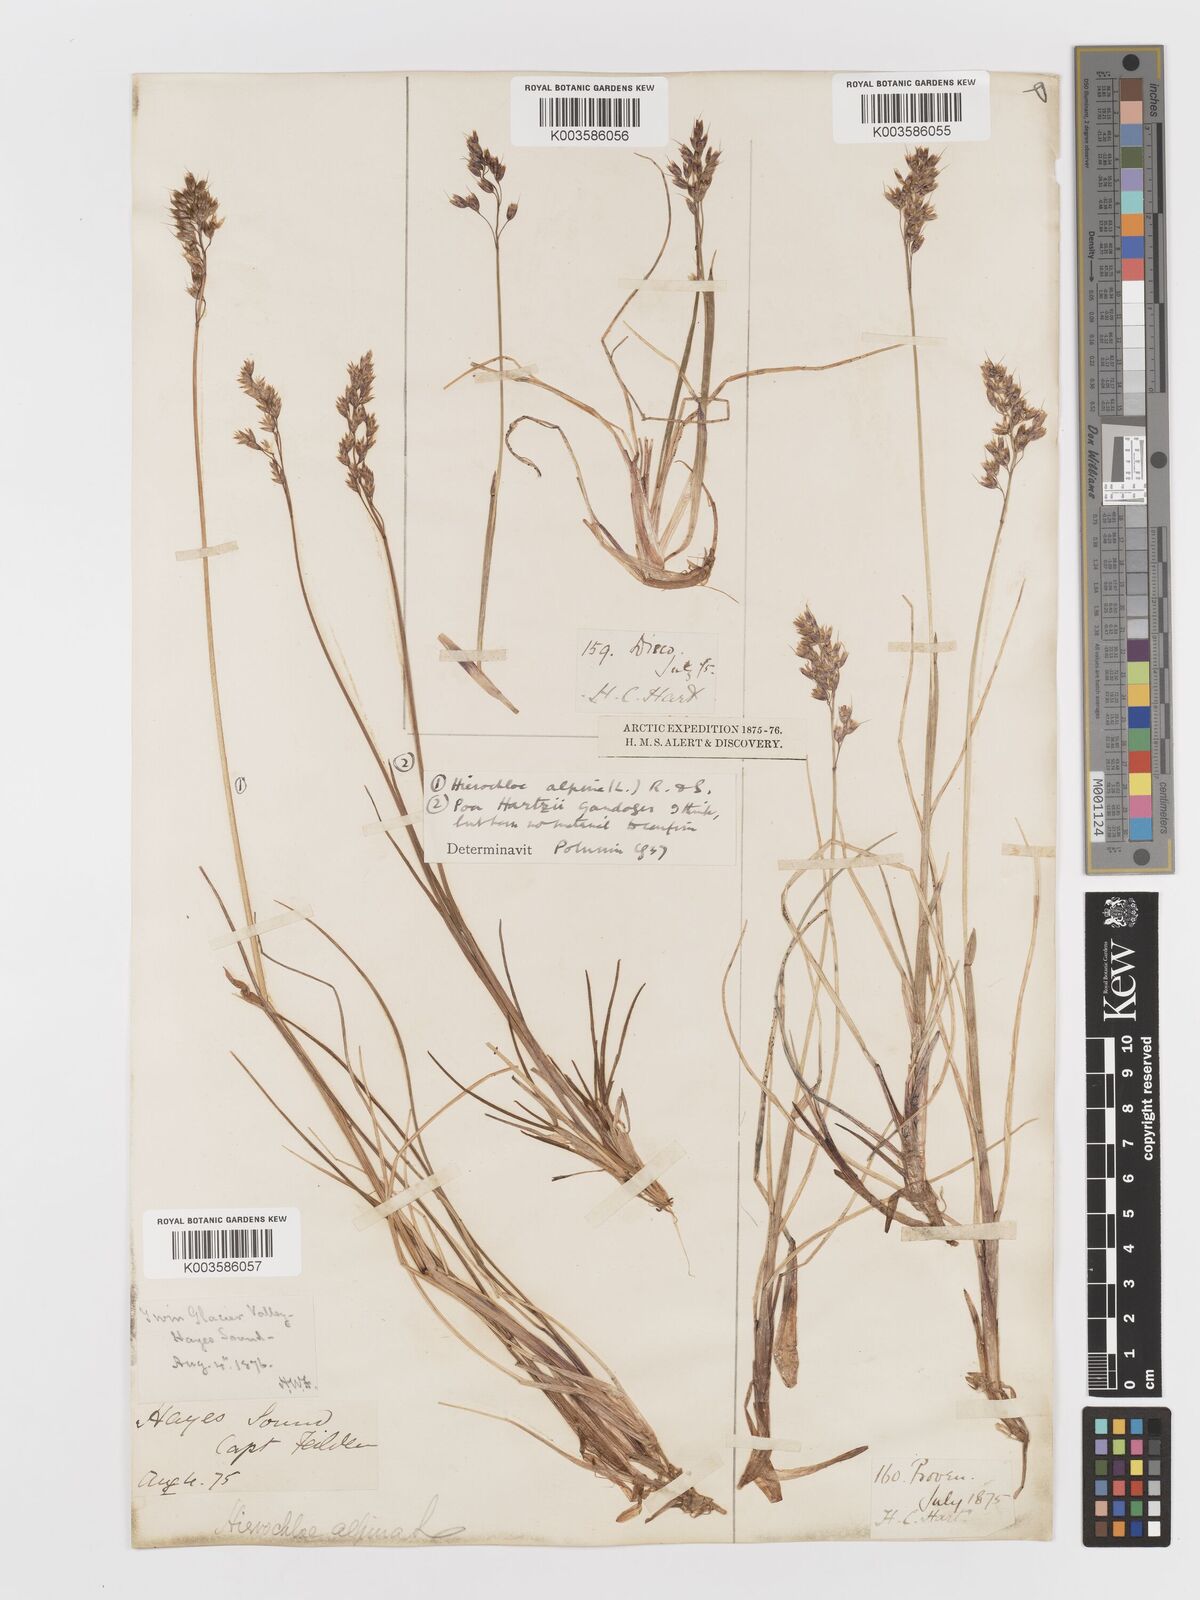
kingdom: Plantae
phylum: Tracheophyta
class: Liliopsida
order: Poales
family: Poaceae
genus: Anthoxanthum
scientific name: Anthoxanthum monticola
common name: Alpine sweetgrass
